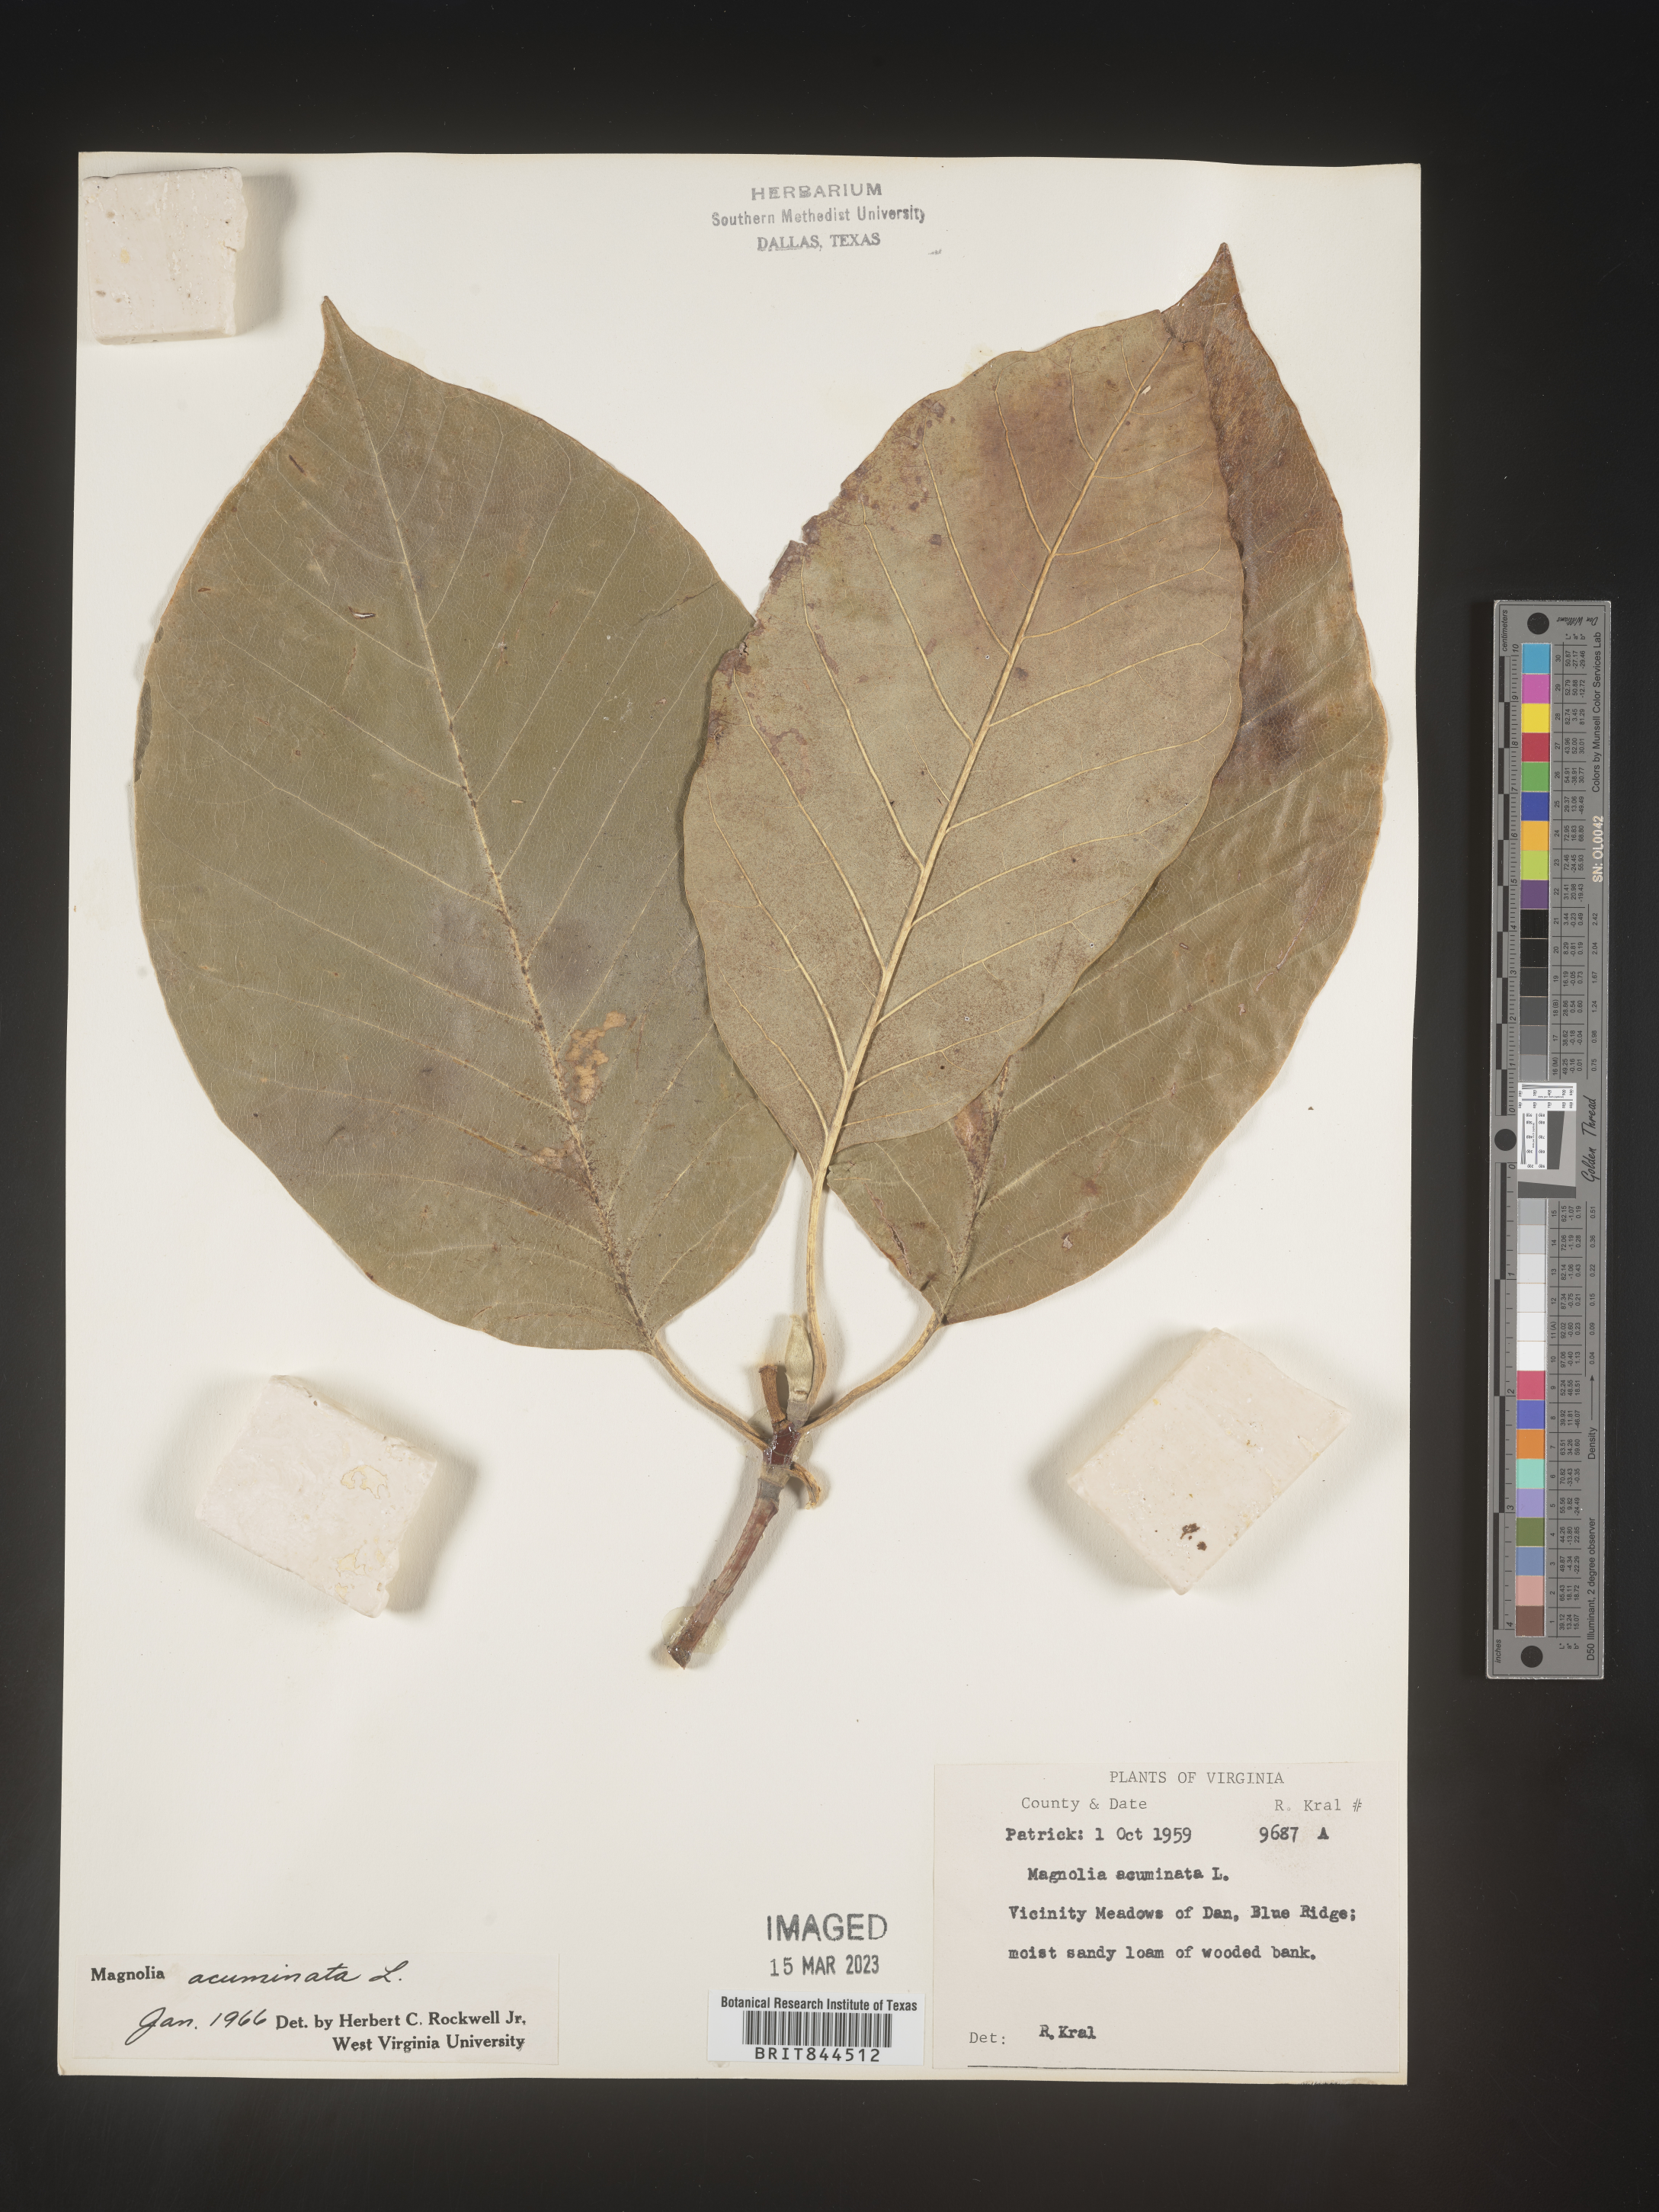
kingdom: Plantae
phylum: Tracheophyta
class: Magnoliopsida
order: Magnoliales
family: Magnoliaceae
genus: Magnolia
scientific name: Magnolia acuminata
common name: Cucumber magnolia
